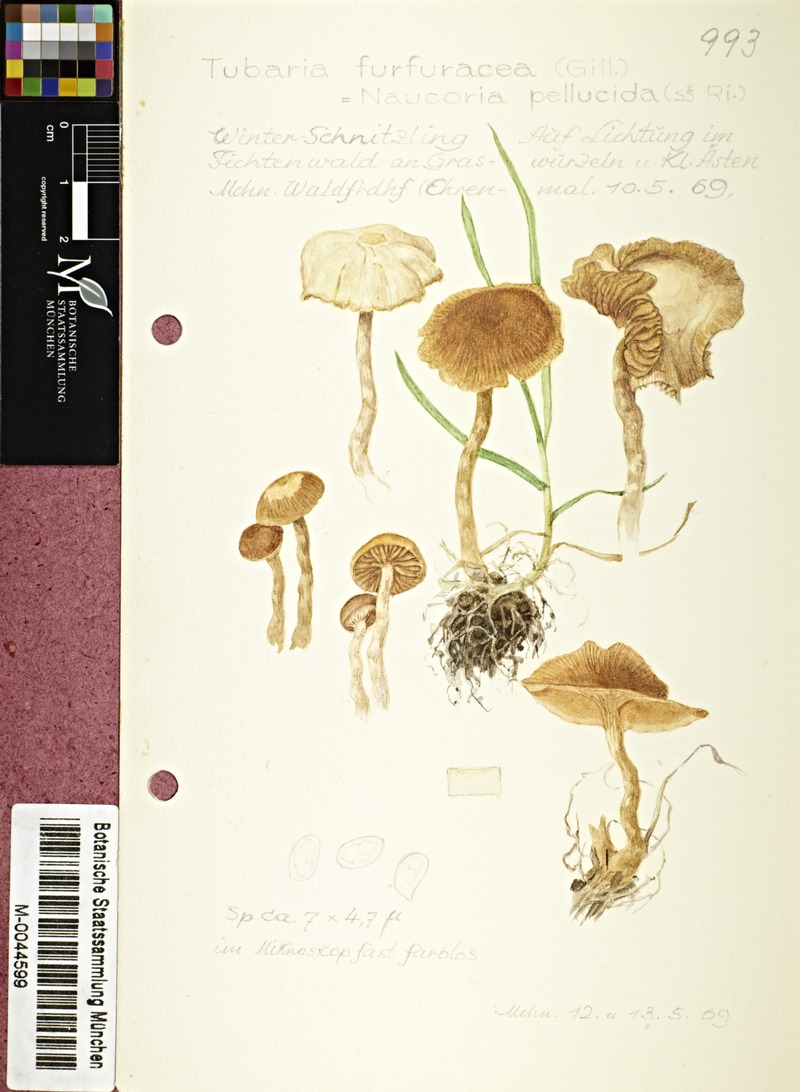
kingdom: Fungi
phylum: Basidiomycota
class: Agaricomycetes
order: Agaricales
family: Tubariaceae
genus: Tubaria
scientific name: Tubaria furfuracea
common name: Scurfy twiglet
